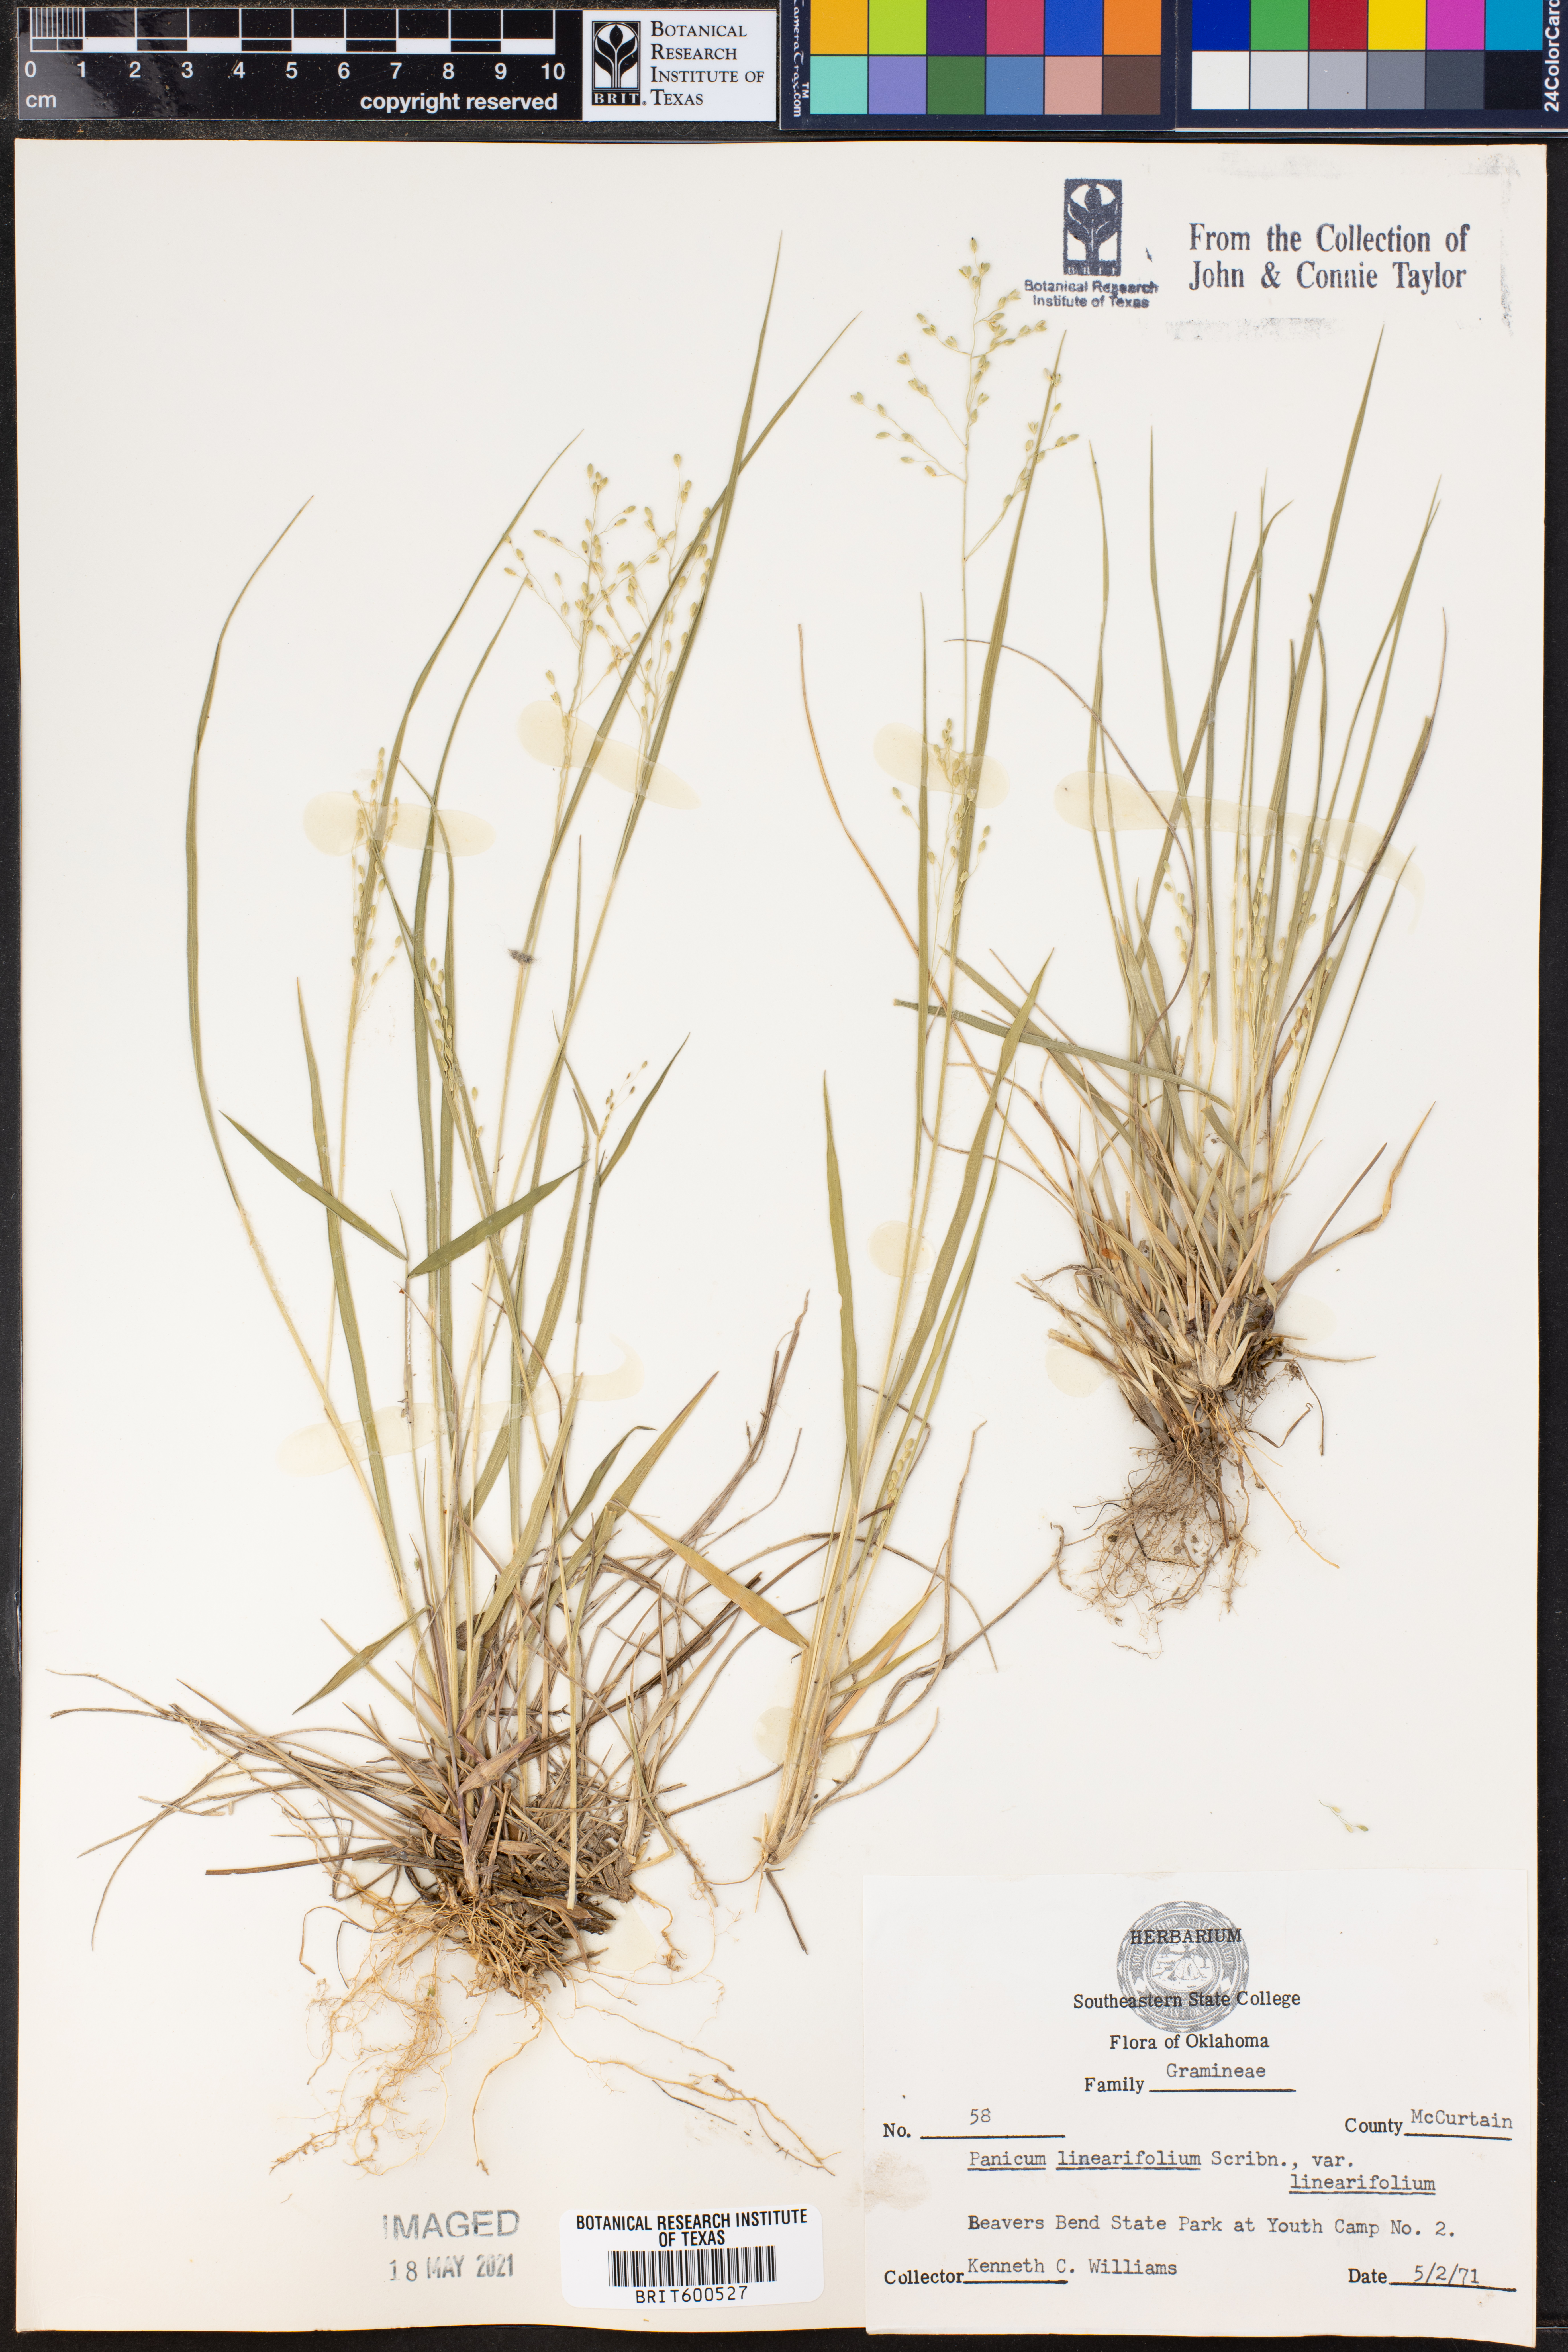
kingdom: Plantae
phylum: Tracheophyta
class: Liliopsida
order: Poales
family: Poaceae
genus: Dichanthelium
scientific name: Dichanthelium linearifolium
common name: Linear-leaved panicgrass
